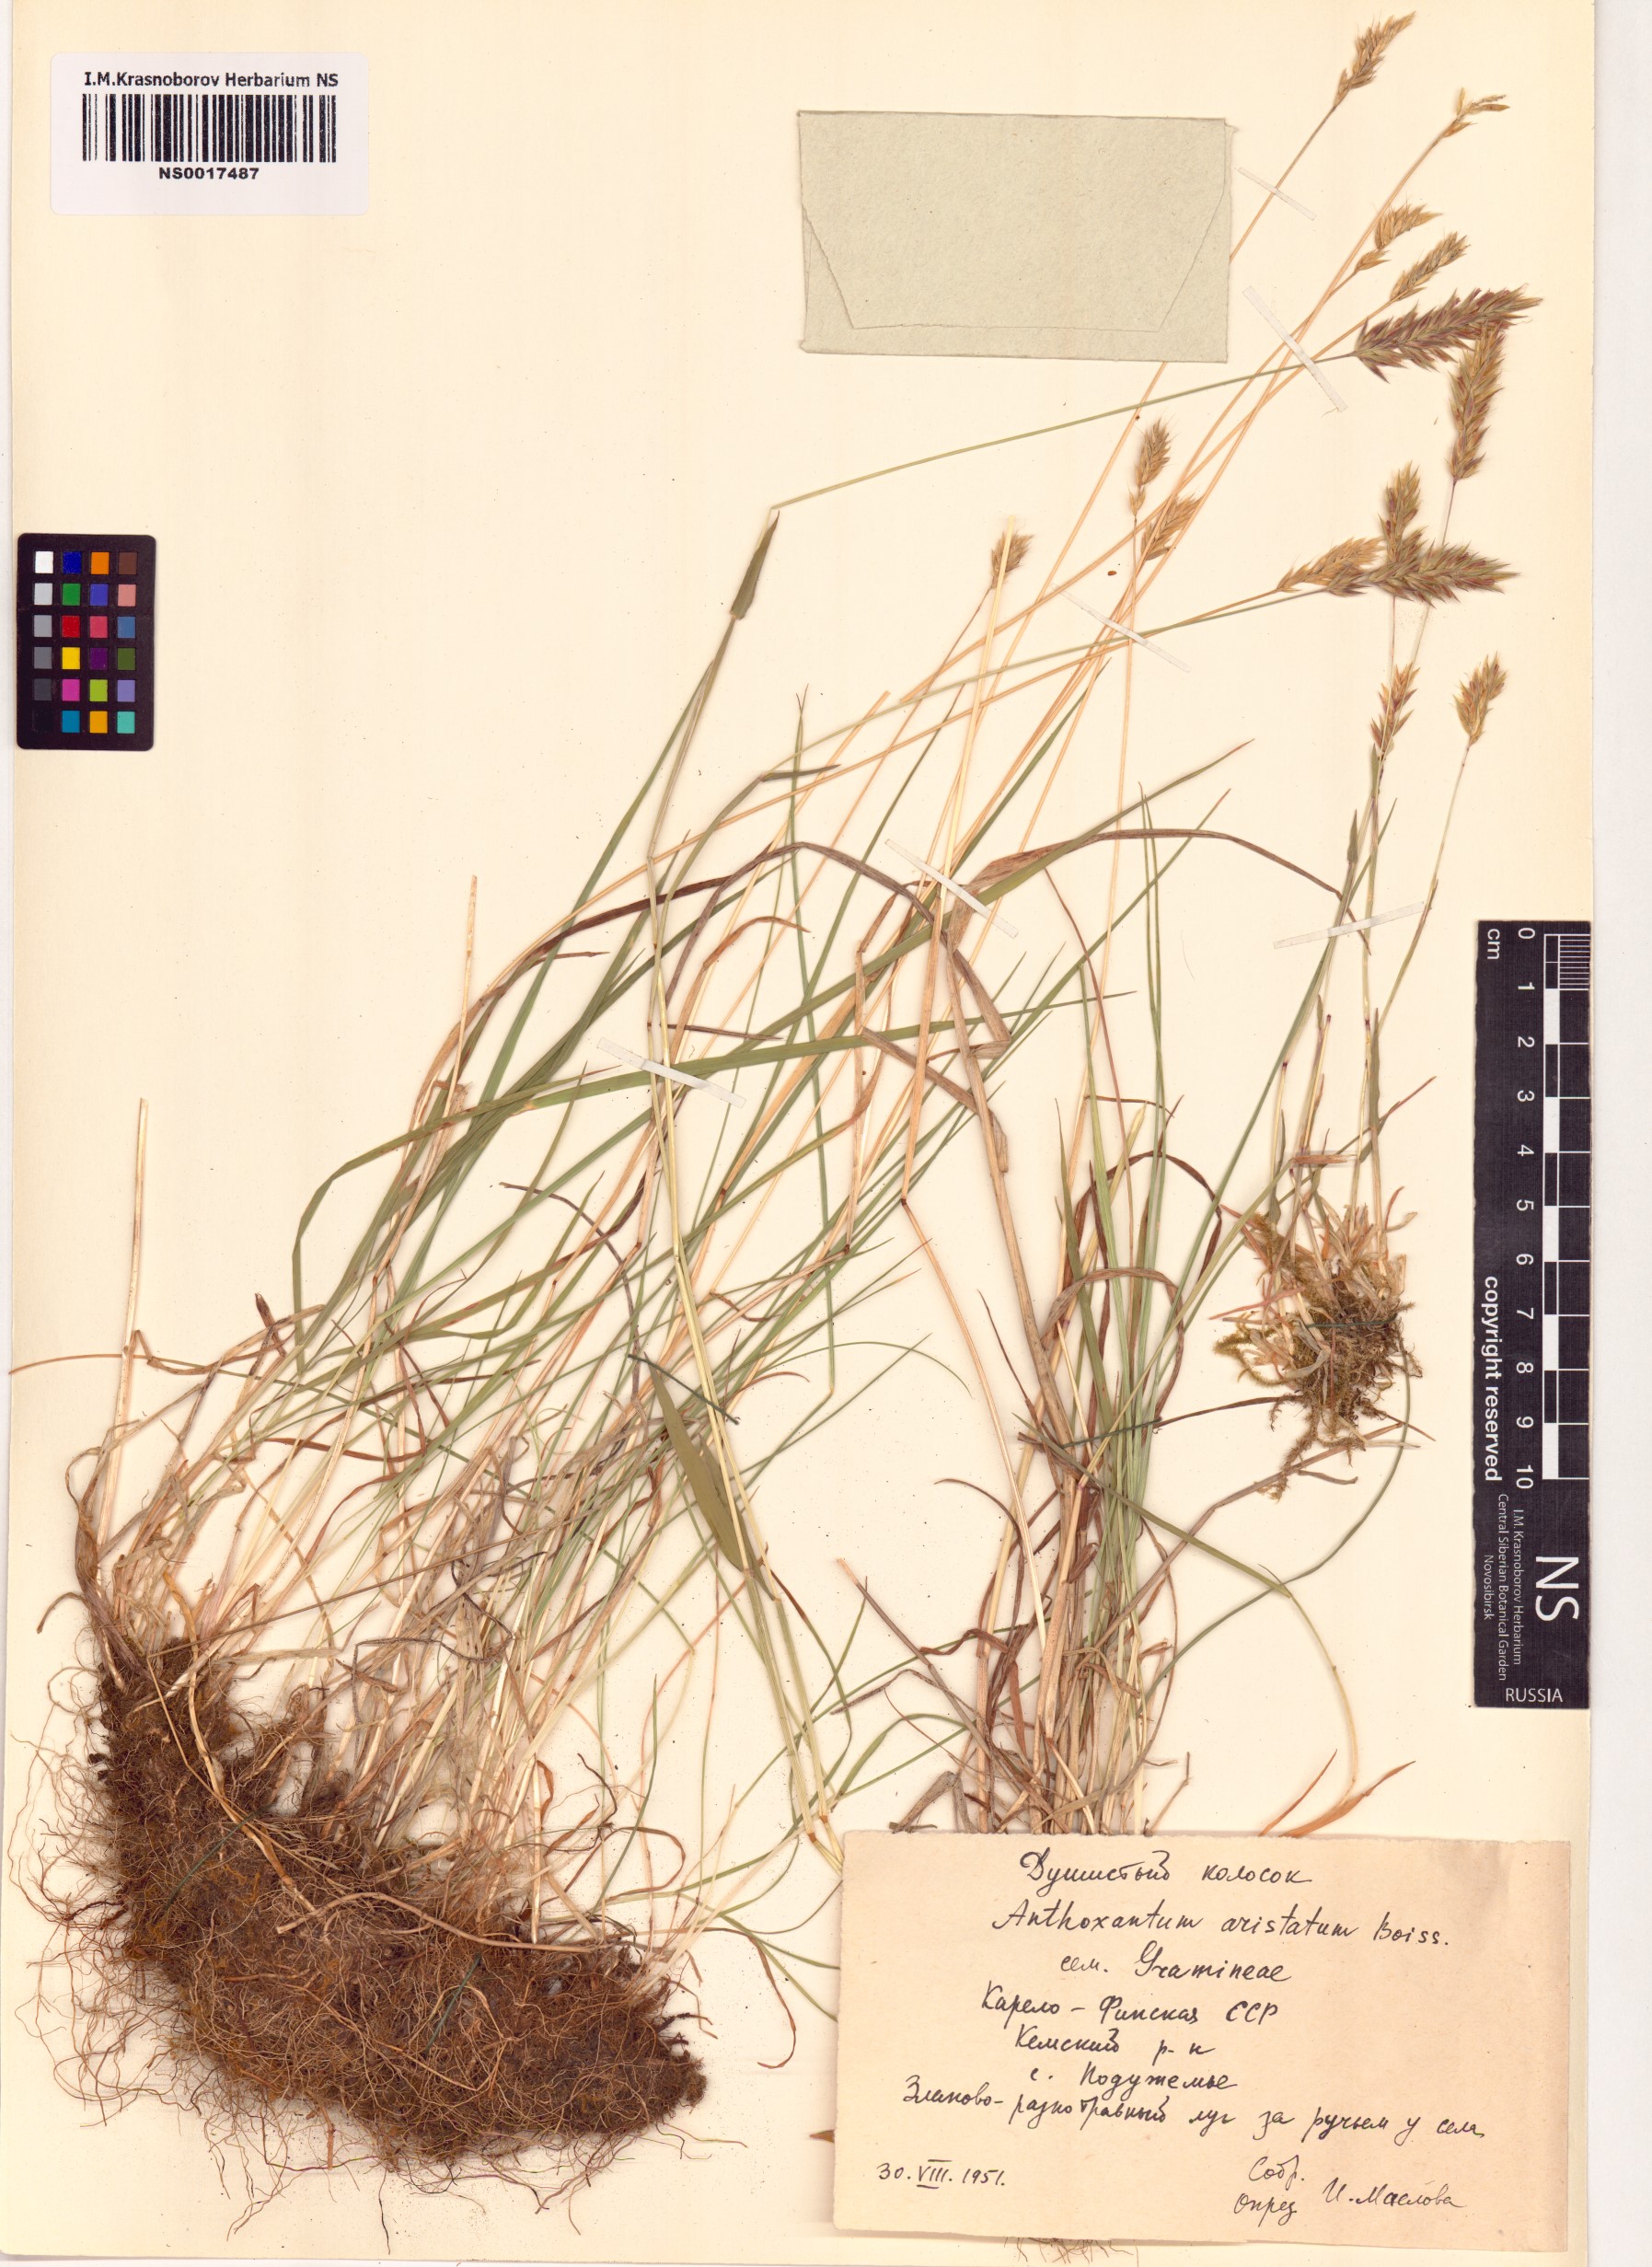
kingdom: Plantae
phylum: Tracheophyta
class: Liliopsida
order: Poales
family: Poaceae
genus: Anthoxanthum
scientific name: Anthoxanthum aristatum
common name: Annual vernal-grass
